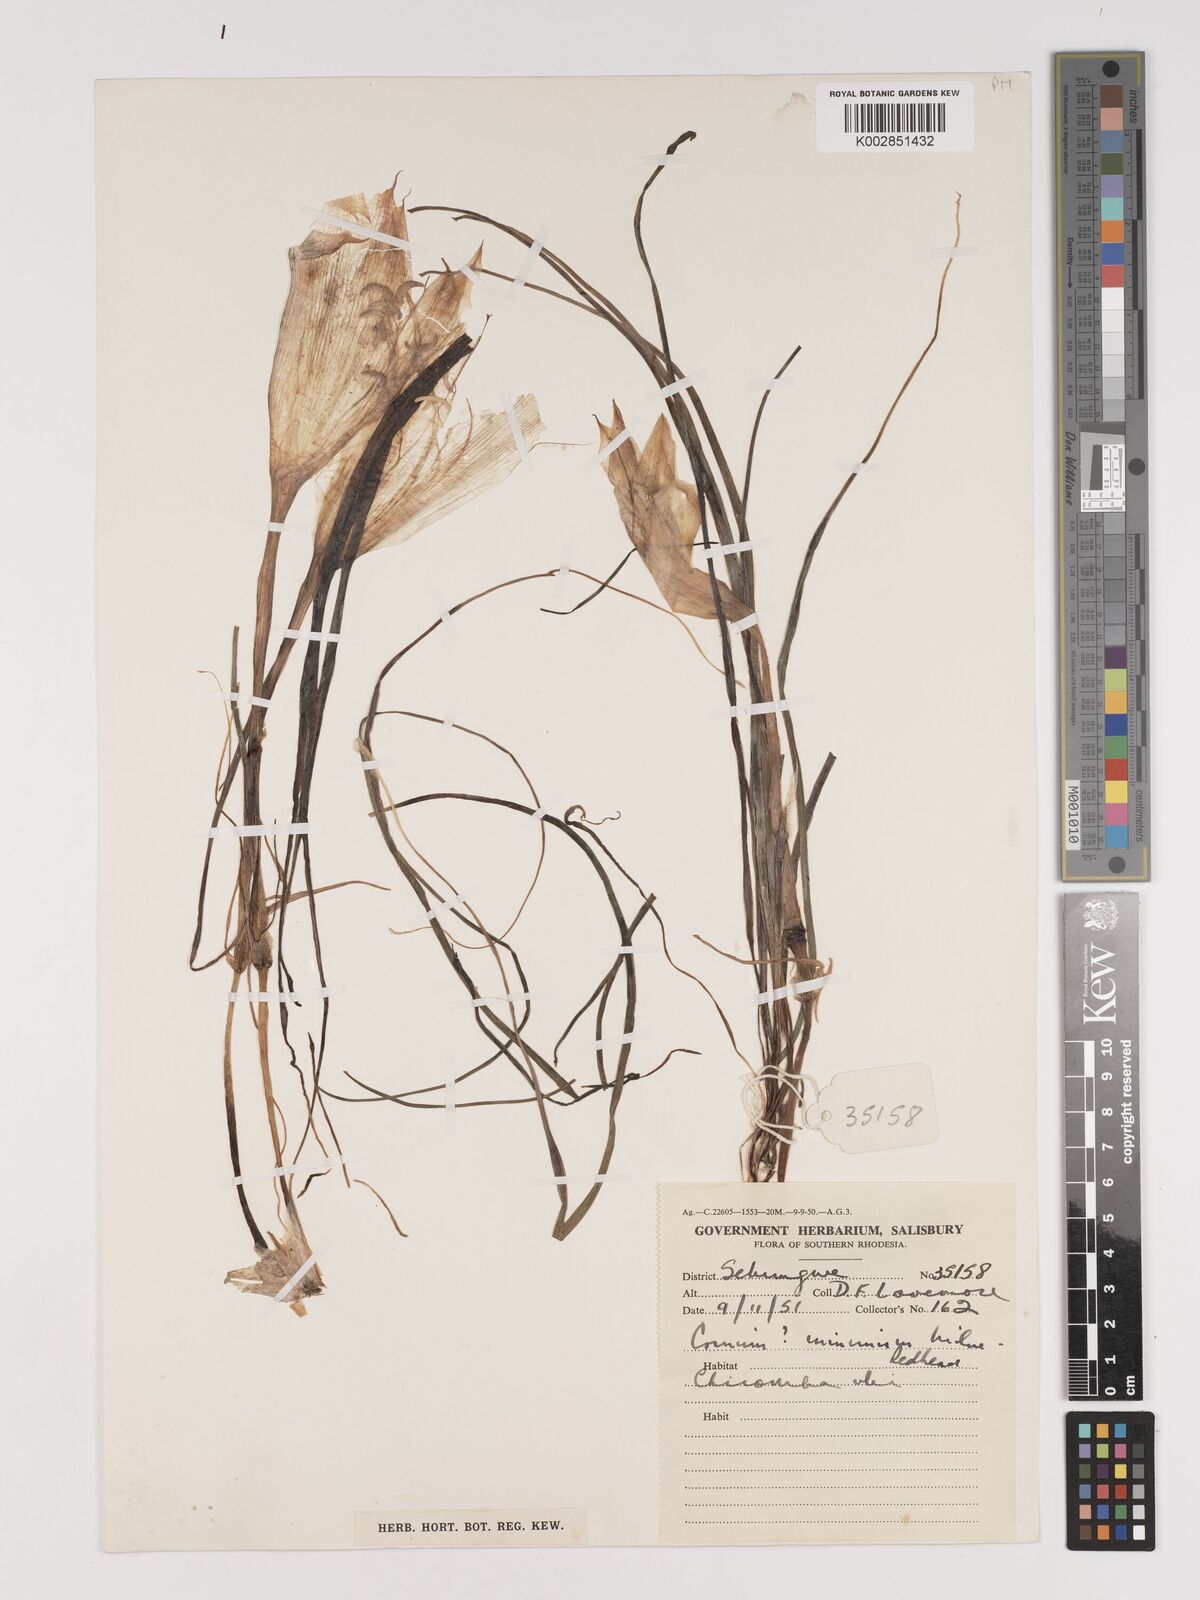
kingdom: Plantae
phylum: Tracheophyta
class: Liliopsida
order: Asparagales
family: Amaryllidaceae
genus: Crinum
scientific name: Crinum walteri
